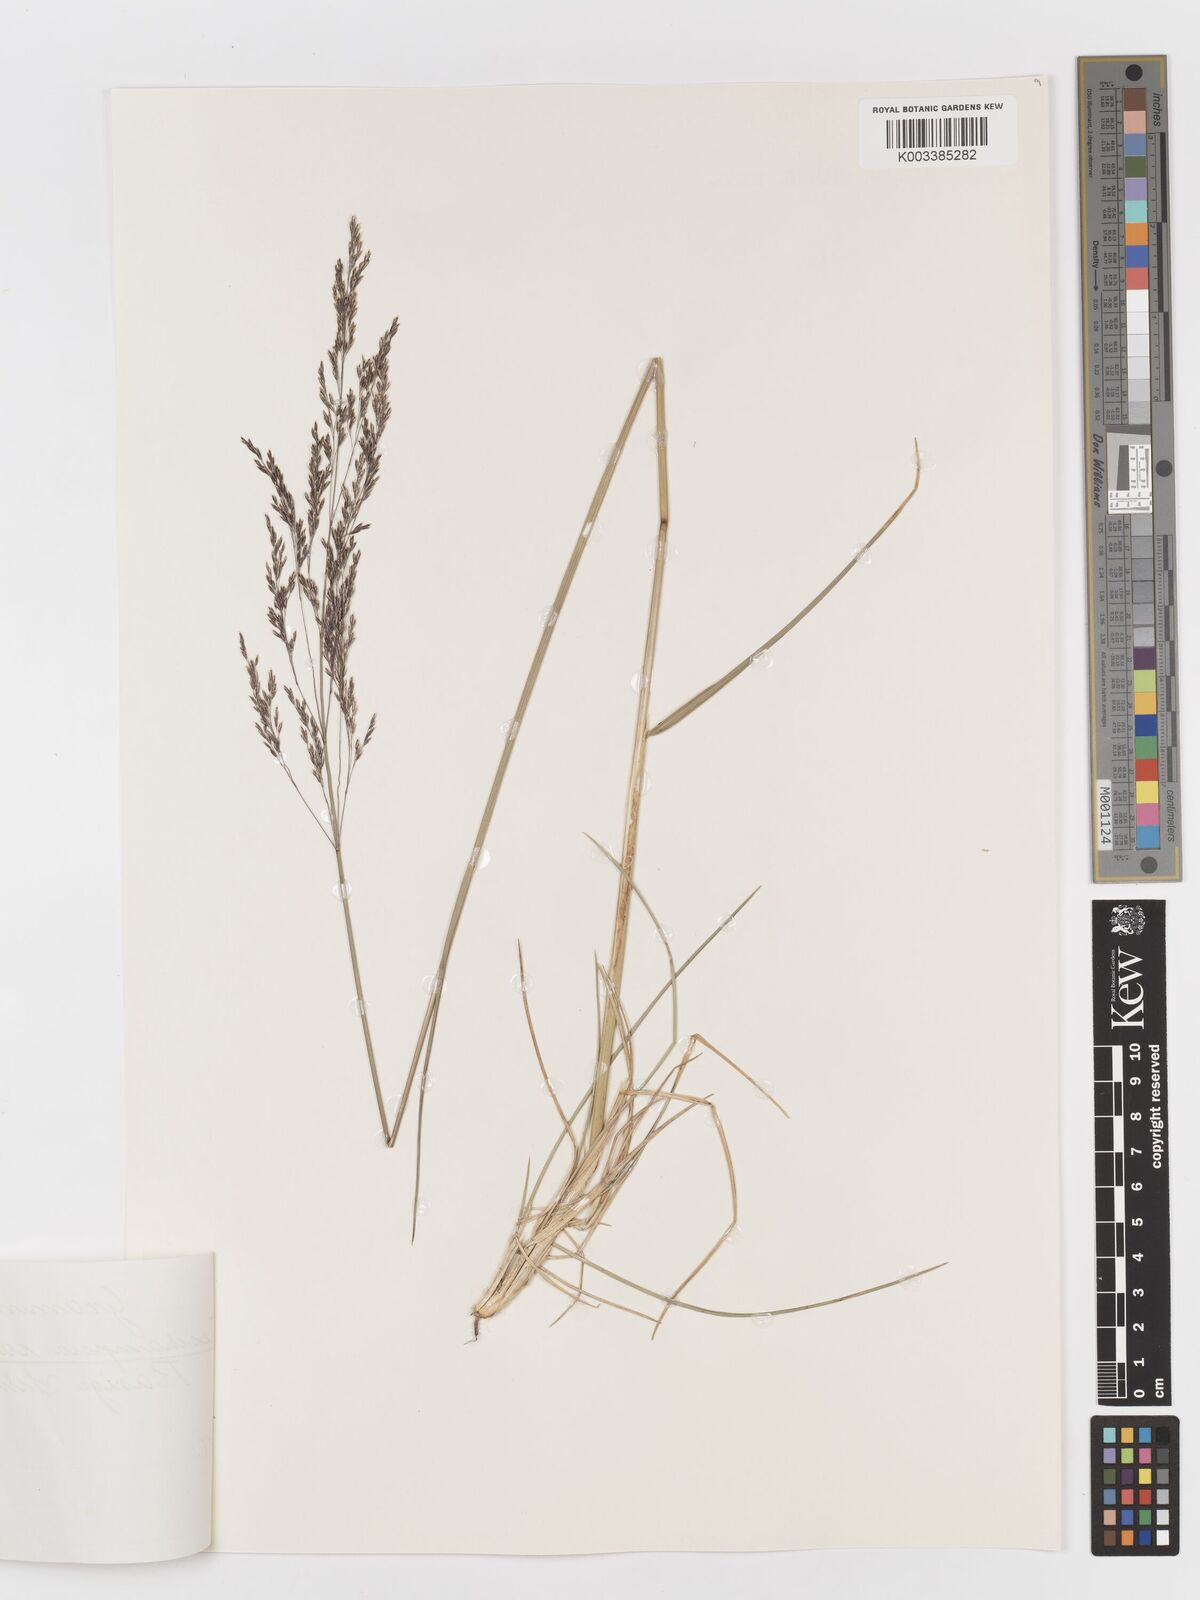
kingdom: Plantae
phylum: Tracheophyta
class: Liliopsida
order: Poales
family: Poaceae
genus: Deschampsia
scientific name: Deschampsia cespitosa
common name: Tufted hair-grass
